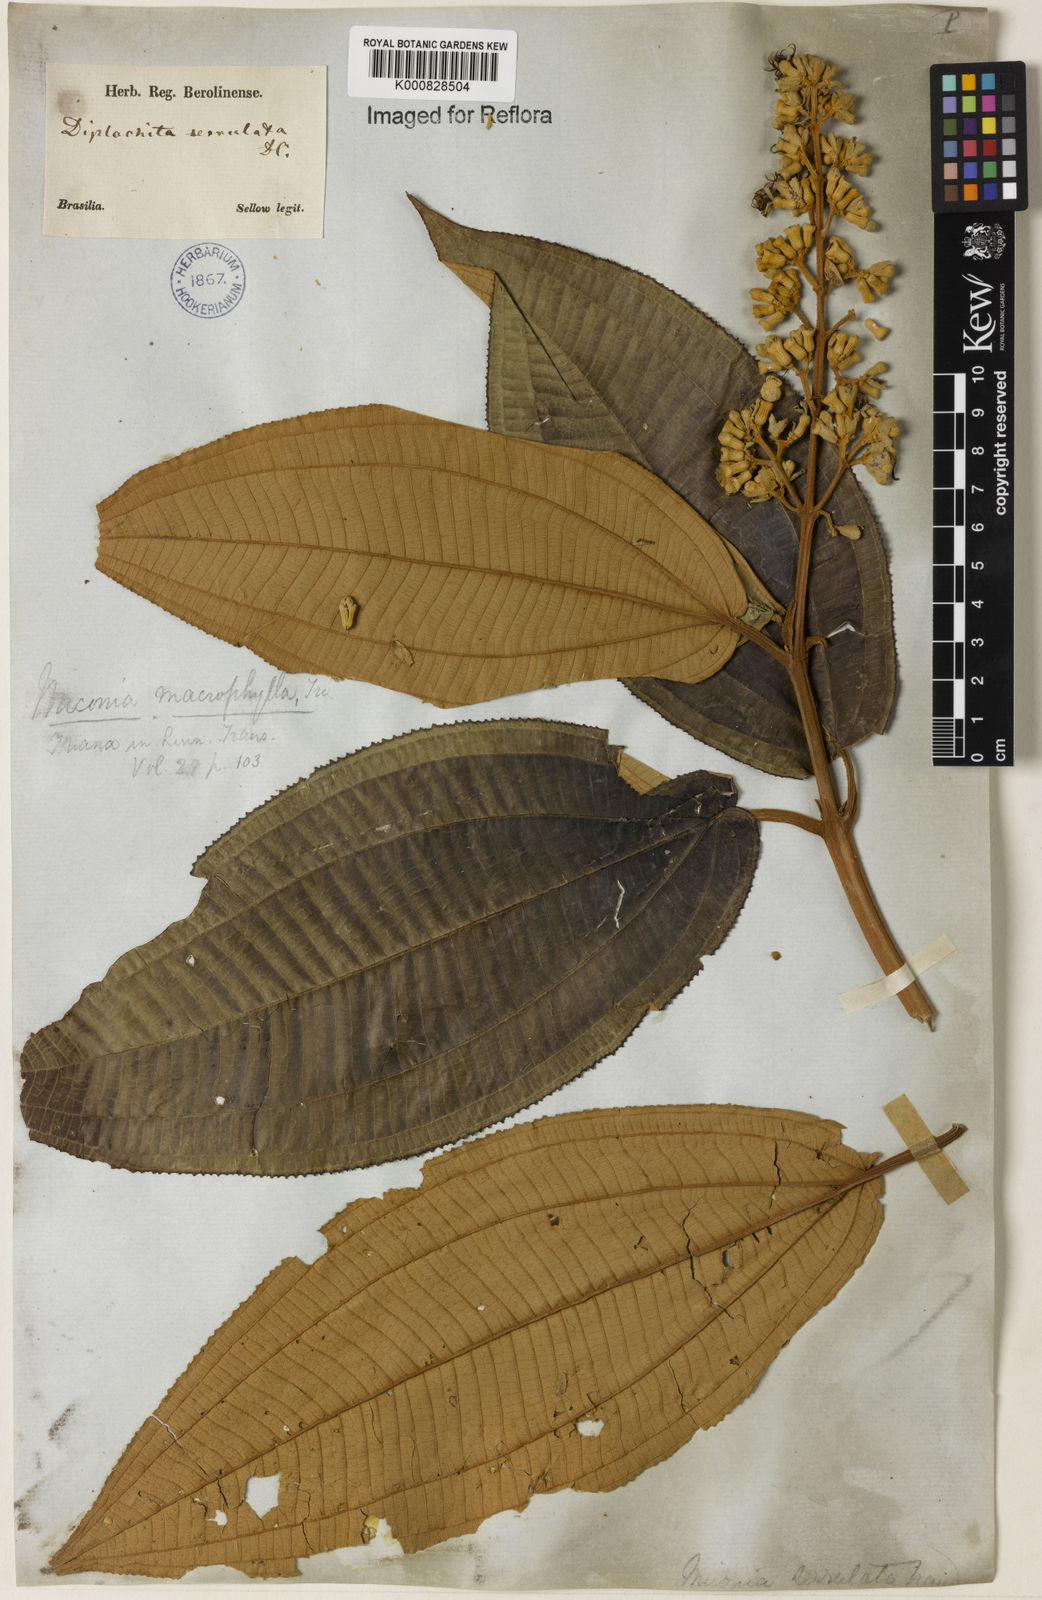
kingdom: Plantae
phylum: Tracheophyta
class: Magnoliopsida
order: Myrtales
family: Melastomataceae
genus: Miconia
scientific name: Miconia serrulata
